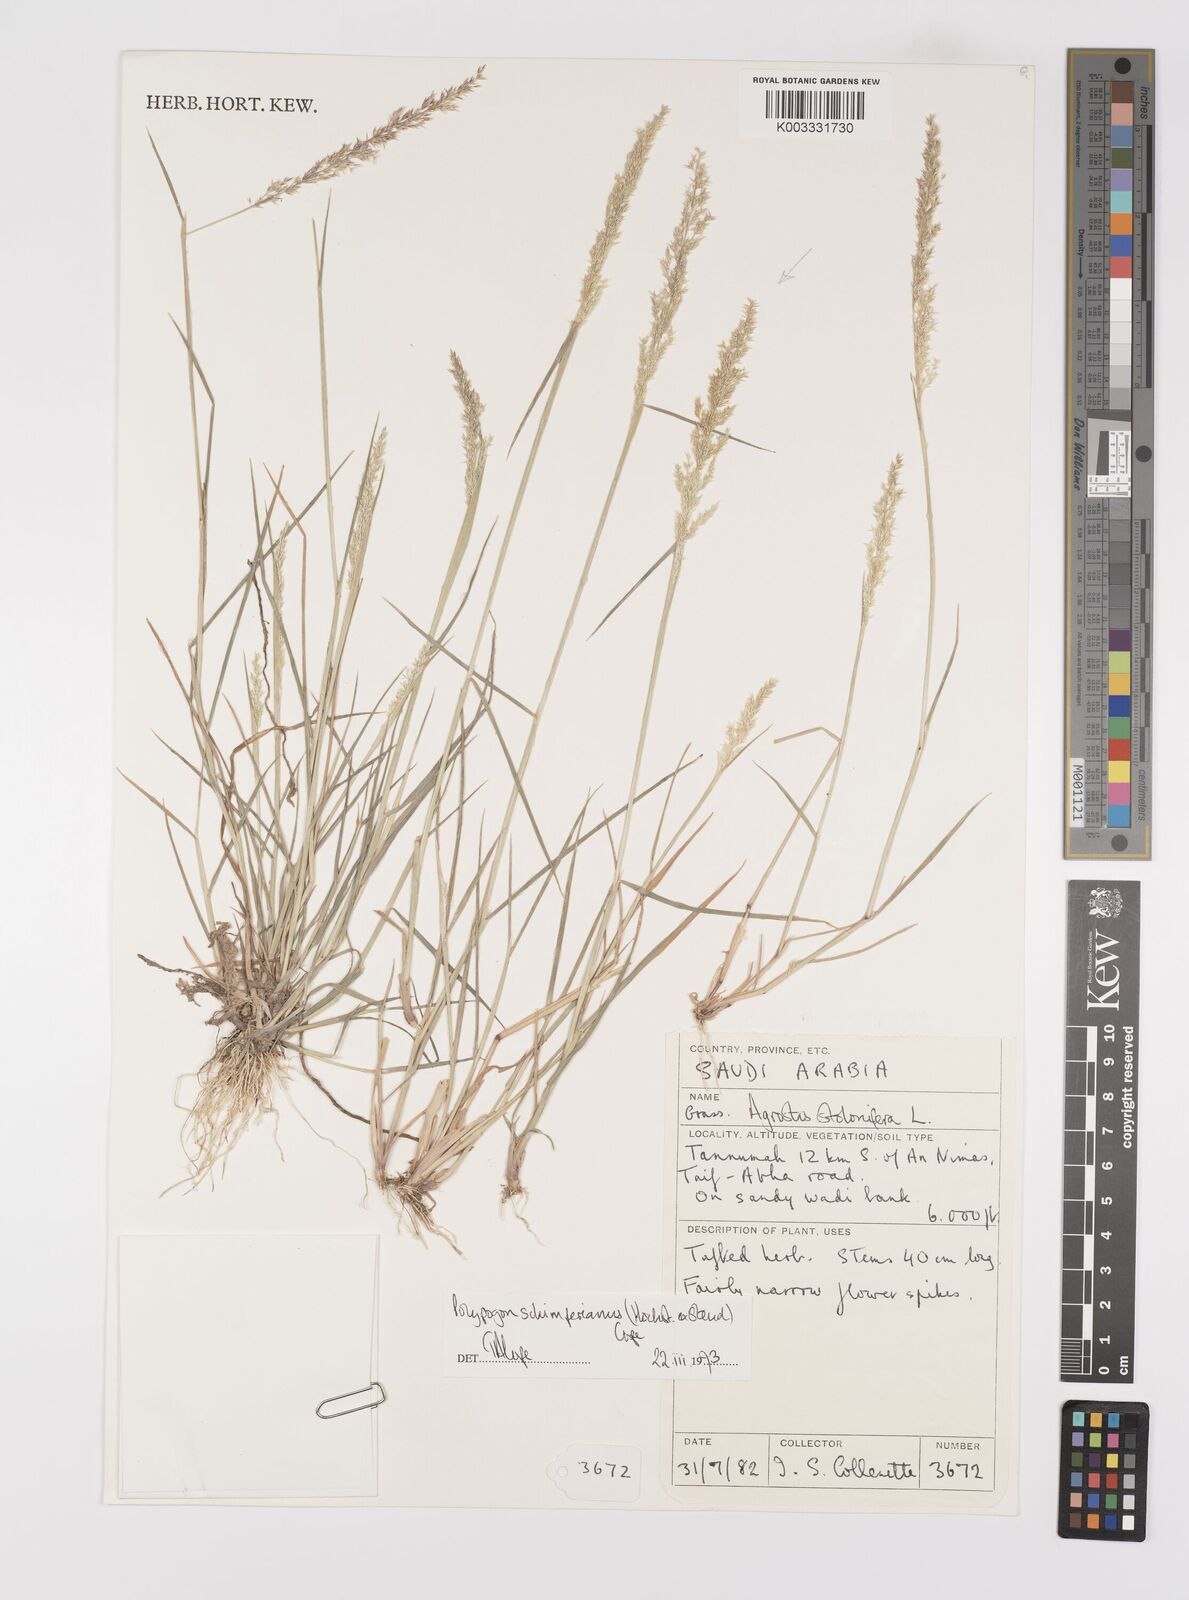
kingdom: Plantae
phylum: Tracheophyta
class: Liliopsida
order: Poales
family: Poaceae
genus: Polypogon
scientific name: Polypogon schimperianus
